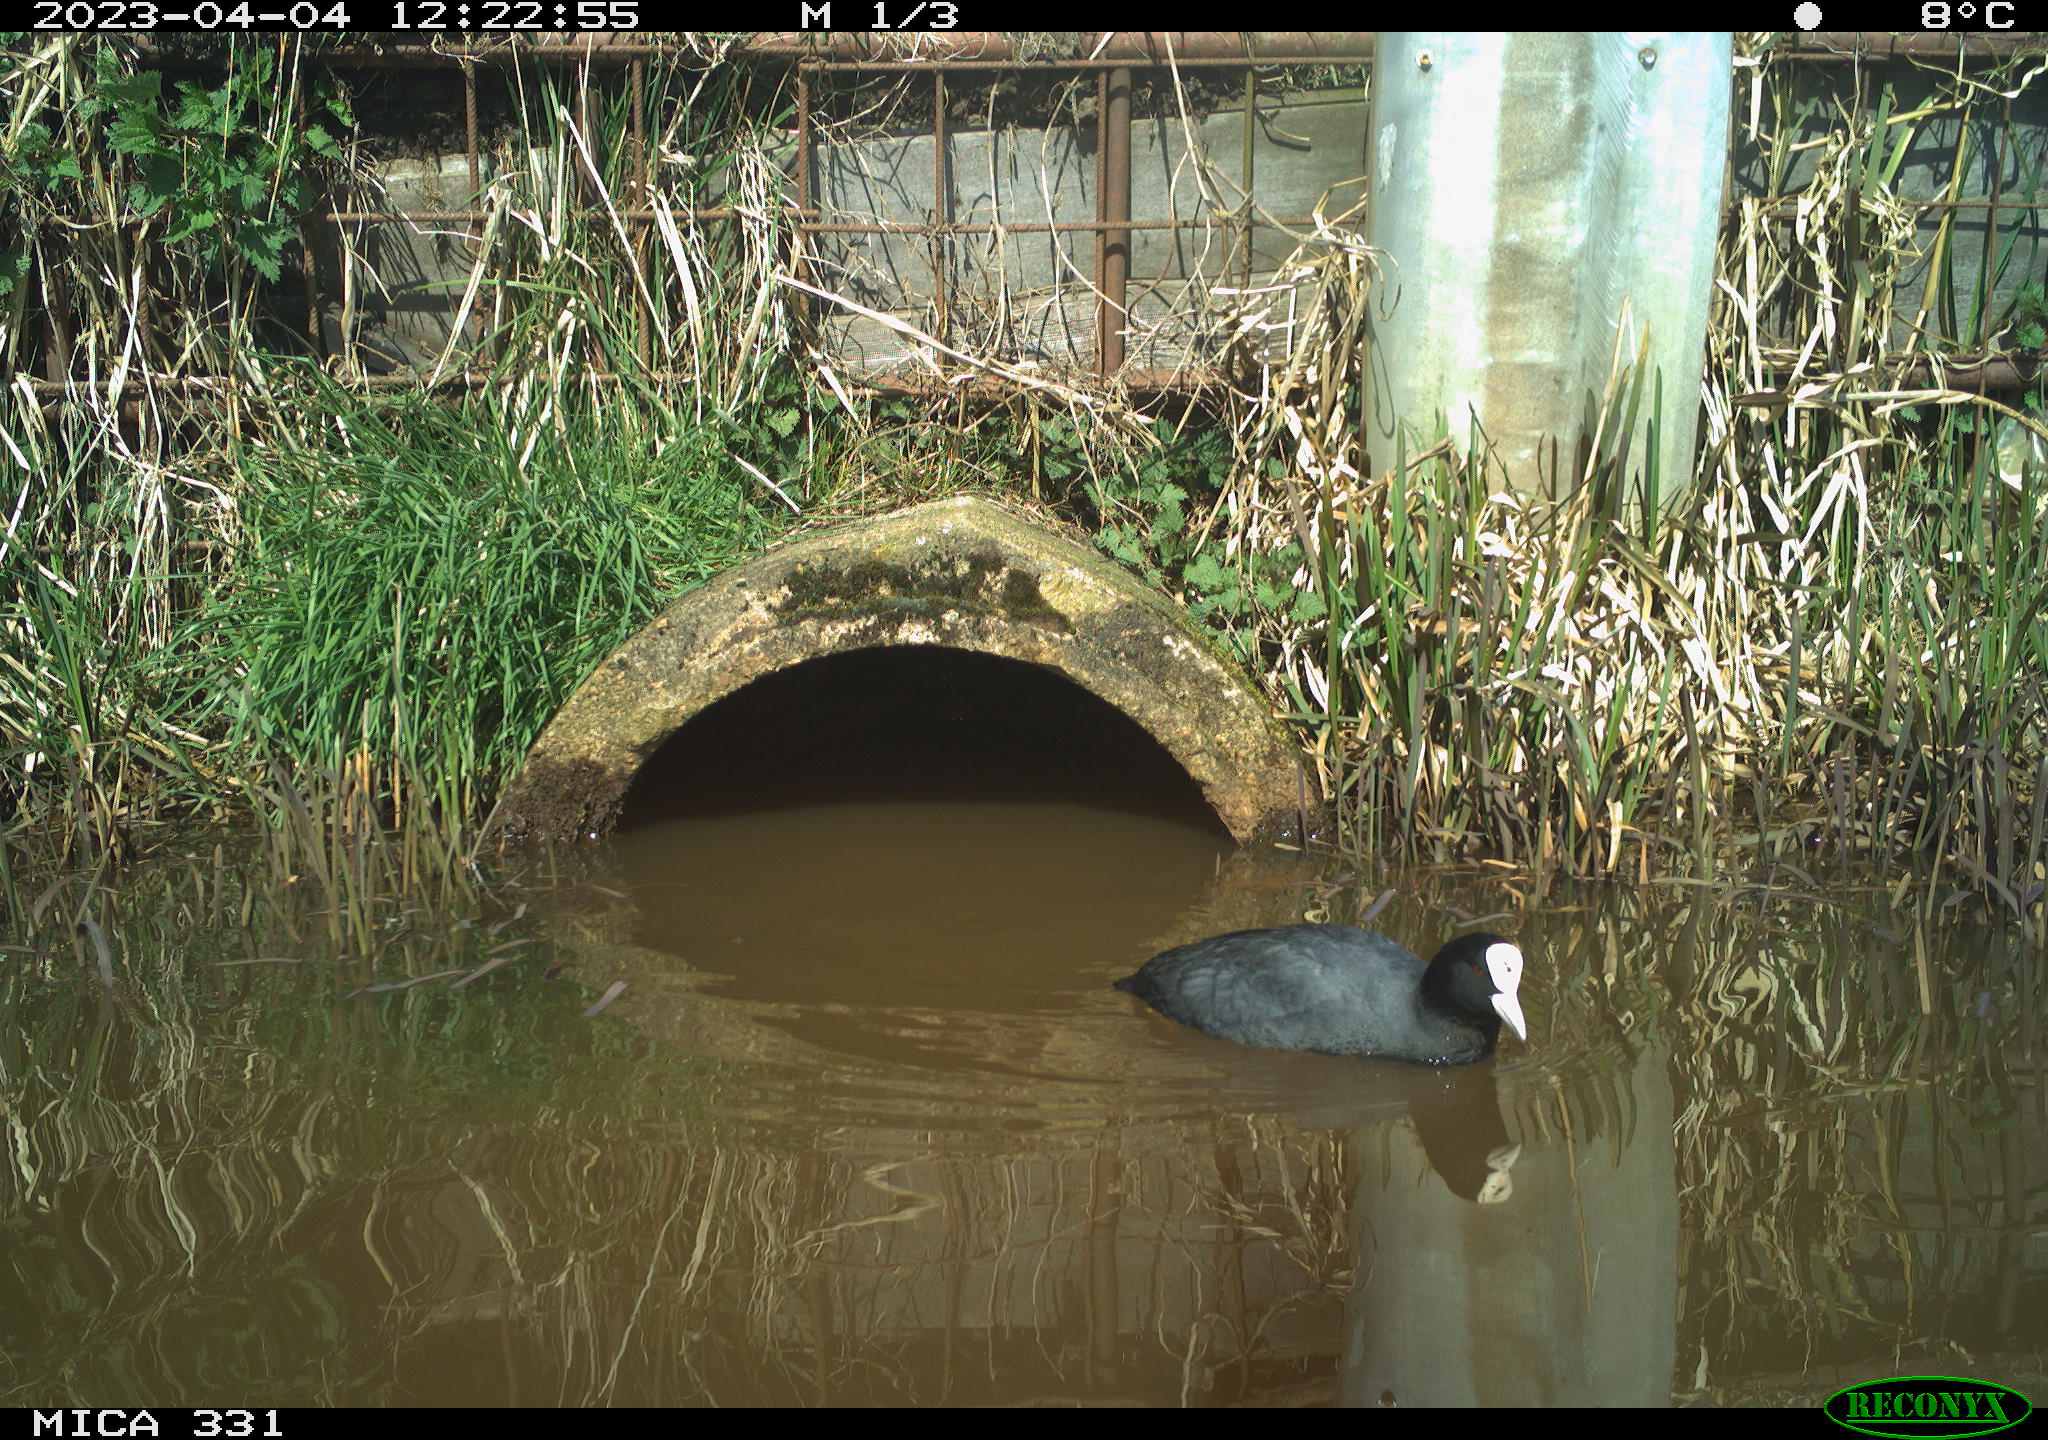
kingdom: Animalia
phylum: Chordata
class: Aves
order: Gruiformes
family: Rallidae
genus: Fulica
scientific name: Fulica atra
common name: Eurasian coot
